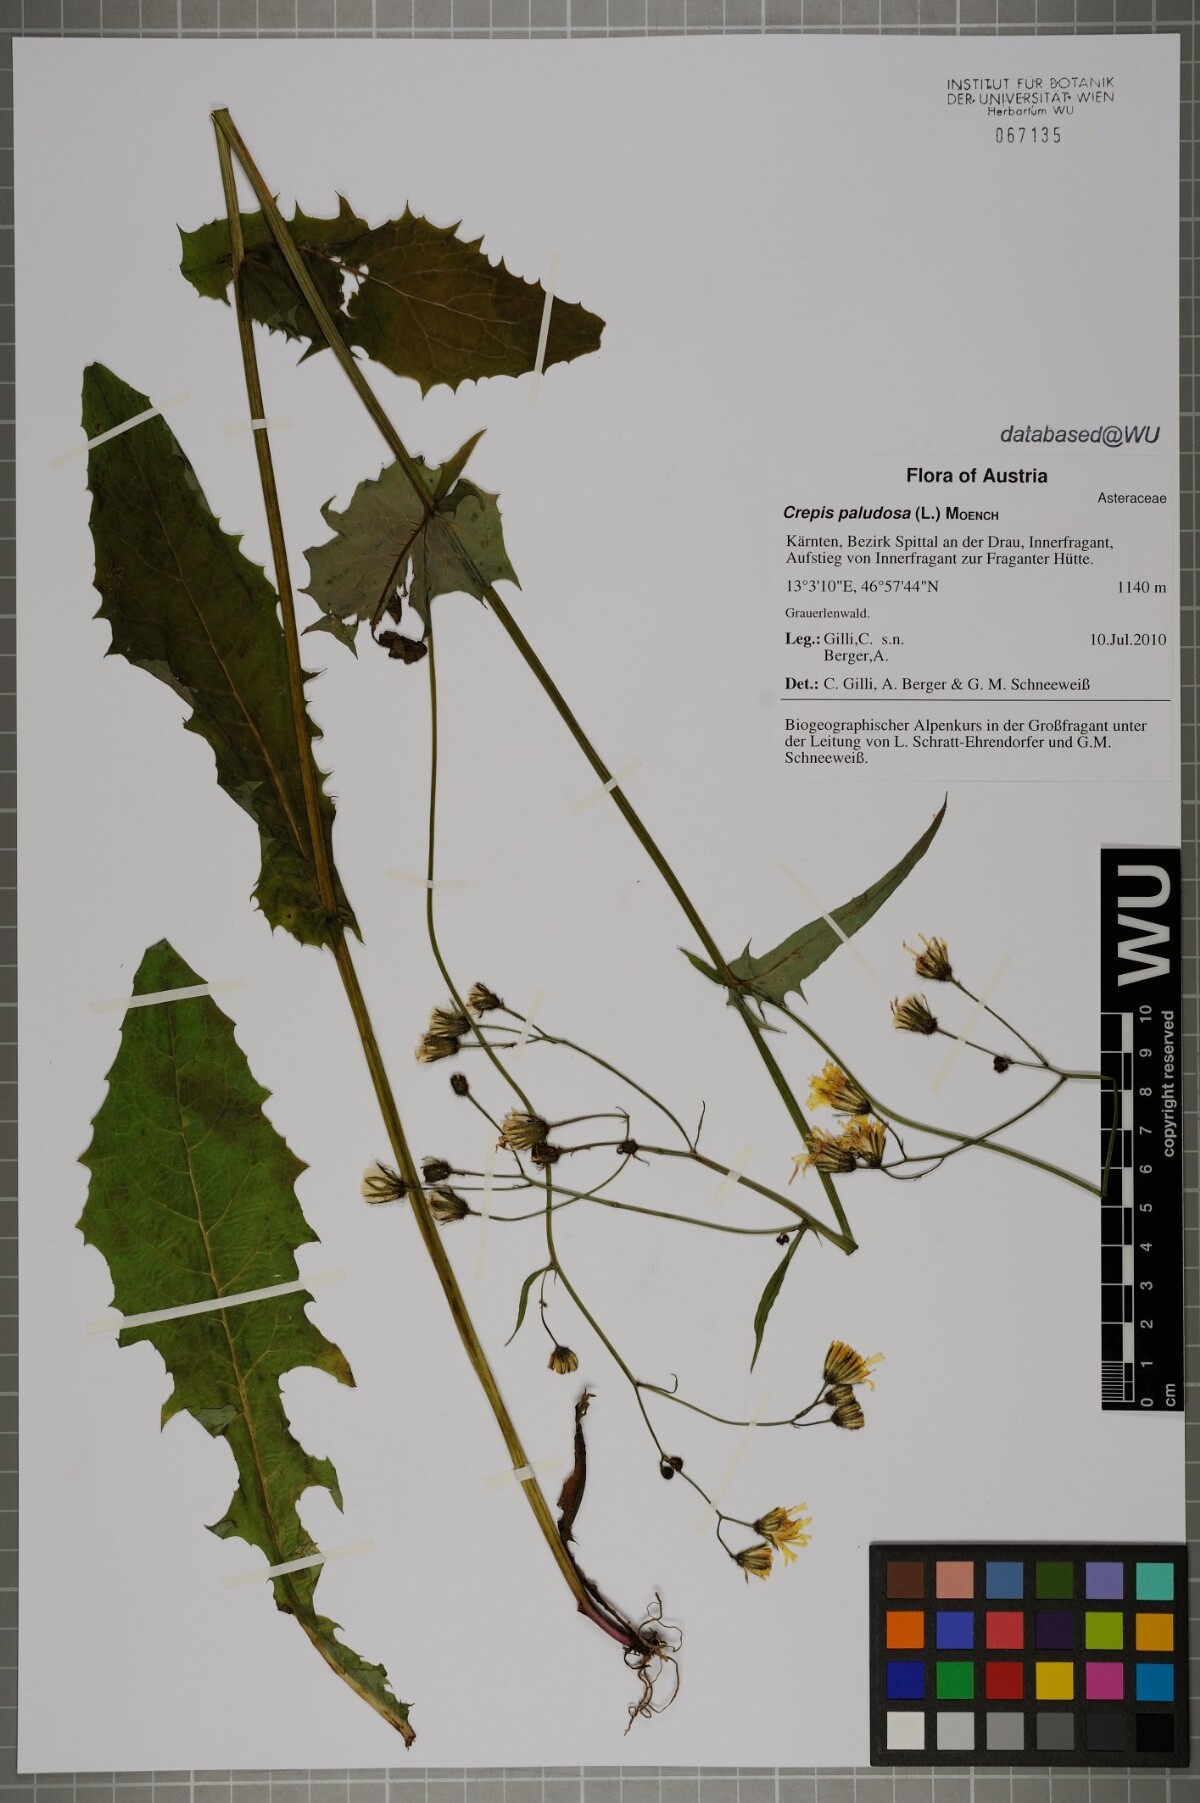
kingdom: Plantae
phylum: Tracheophyta
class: Magnoliopsida
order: Asterales
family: Asteraceae
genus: Crepis
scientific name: Crepis paludosa
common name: Marsh hawk's-beard
